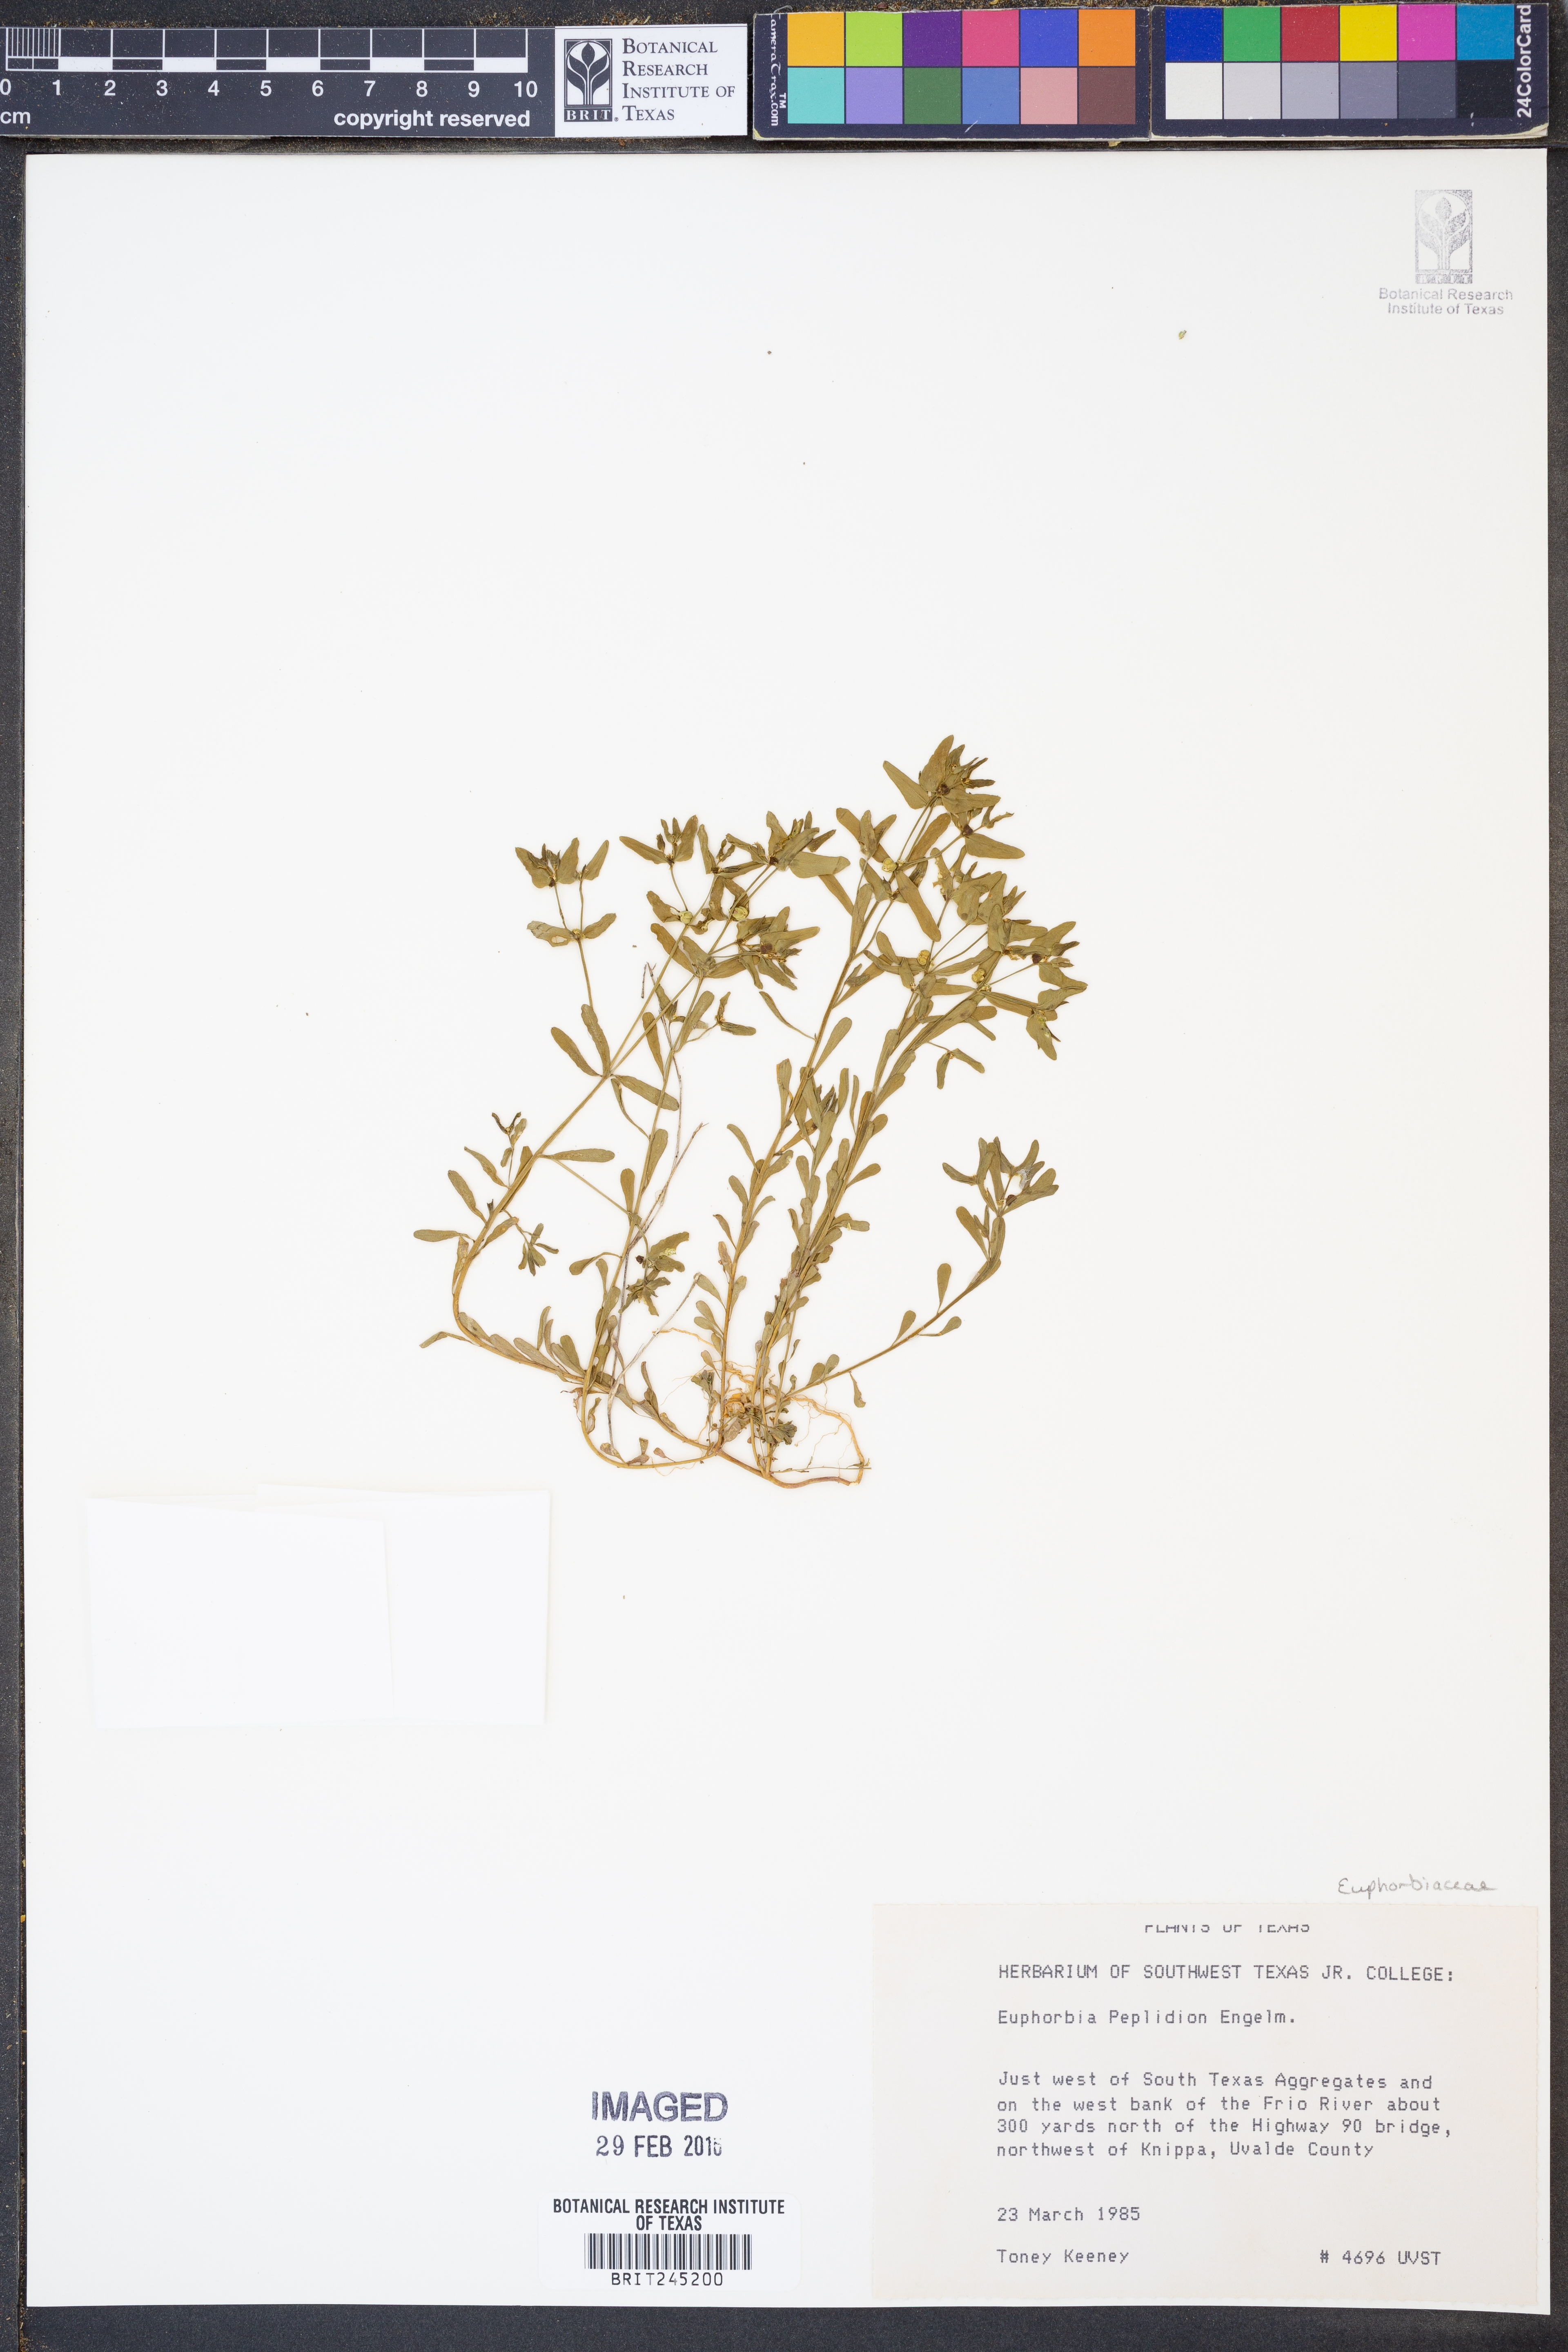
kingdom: Plantae
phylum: Tracheophyta
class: Magnoliopsida
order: Malpighiales
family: Euphorbiaceae
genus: Euphorbia
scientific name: Euphorbia peplidion
